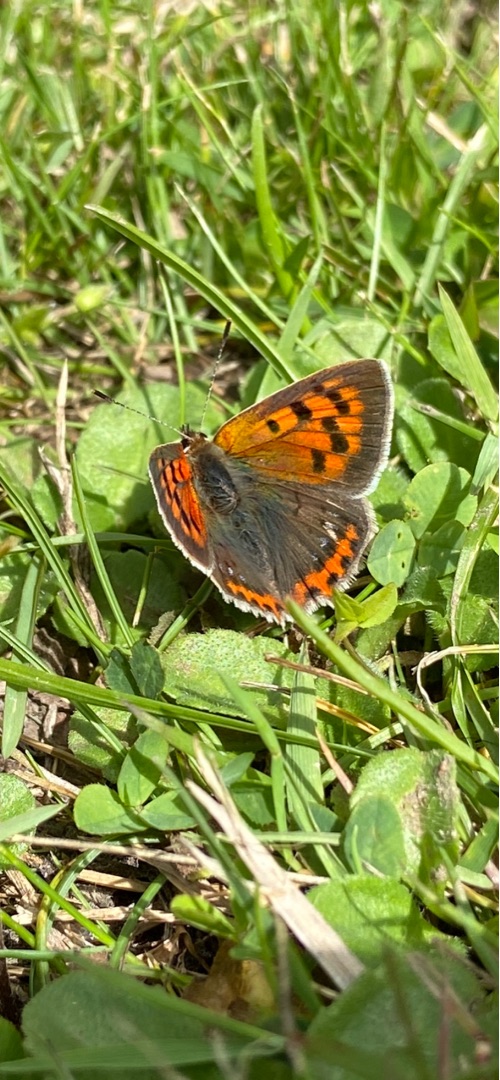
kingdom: Animalia
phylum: Arthropoda
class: Insecta
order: Lepidoptera
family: Lycaenidae
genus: Lycaena
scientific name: Lycaena phlaeas
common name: Lille ildfugl
